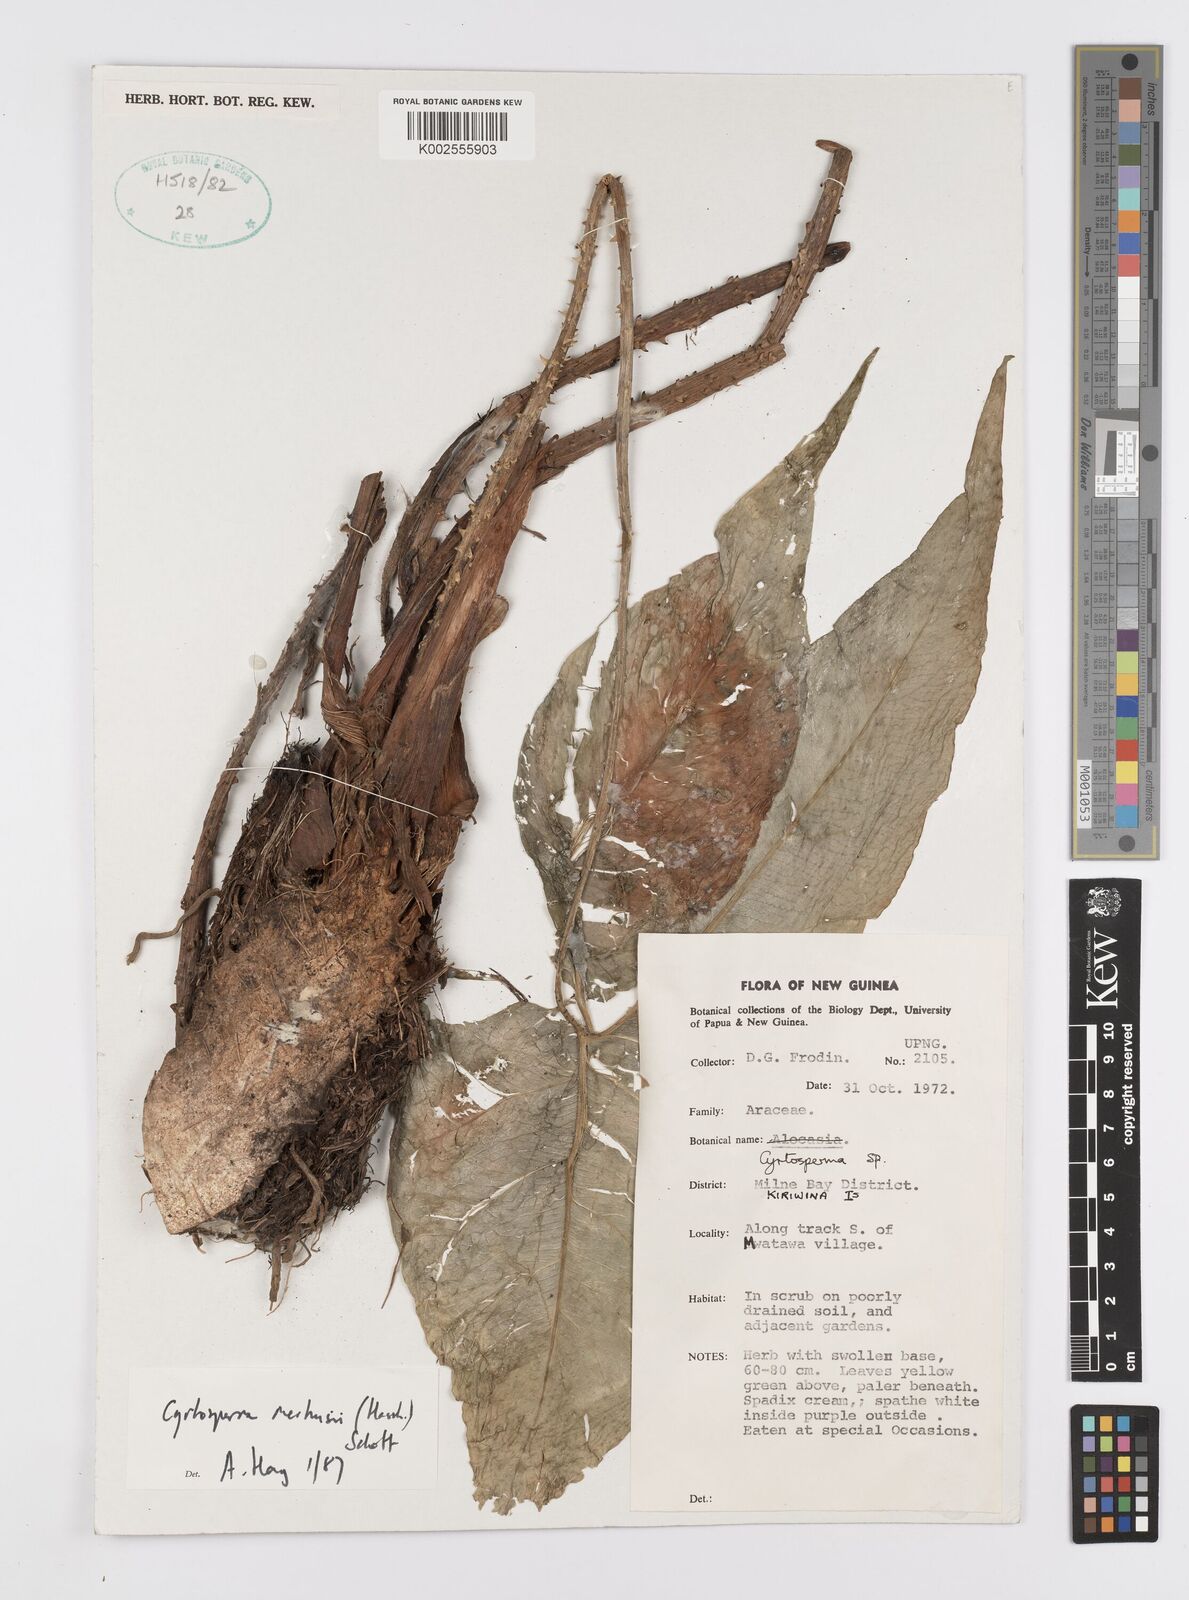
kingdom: Plantae
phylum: Tracheophyta
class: Liliopsida
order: Alismatales
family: Araceae
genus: Cyrtosperma
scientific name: Cyrtosperma merkusii
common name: Giant swamp-taro
